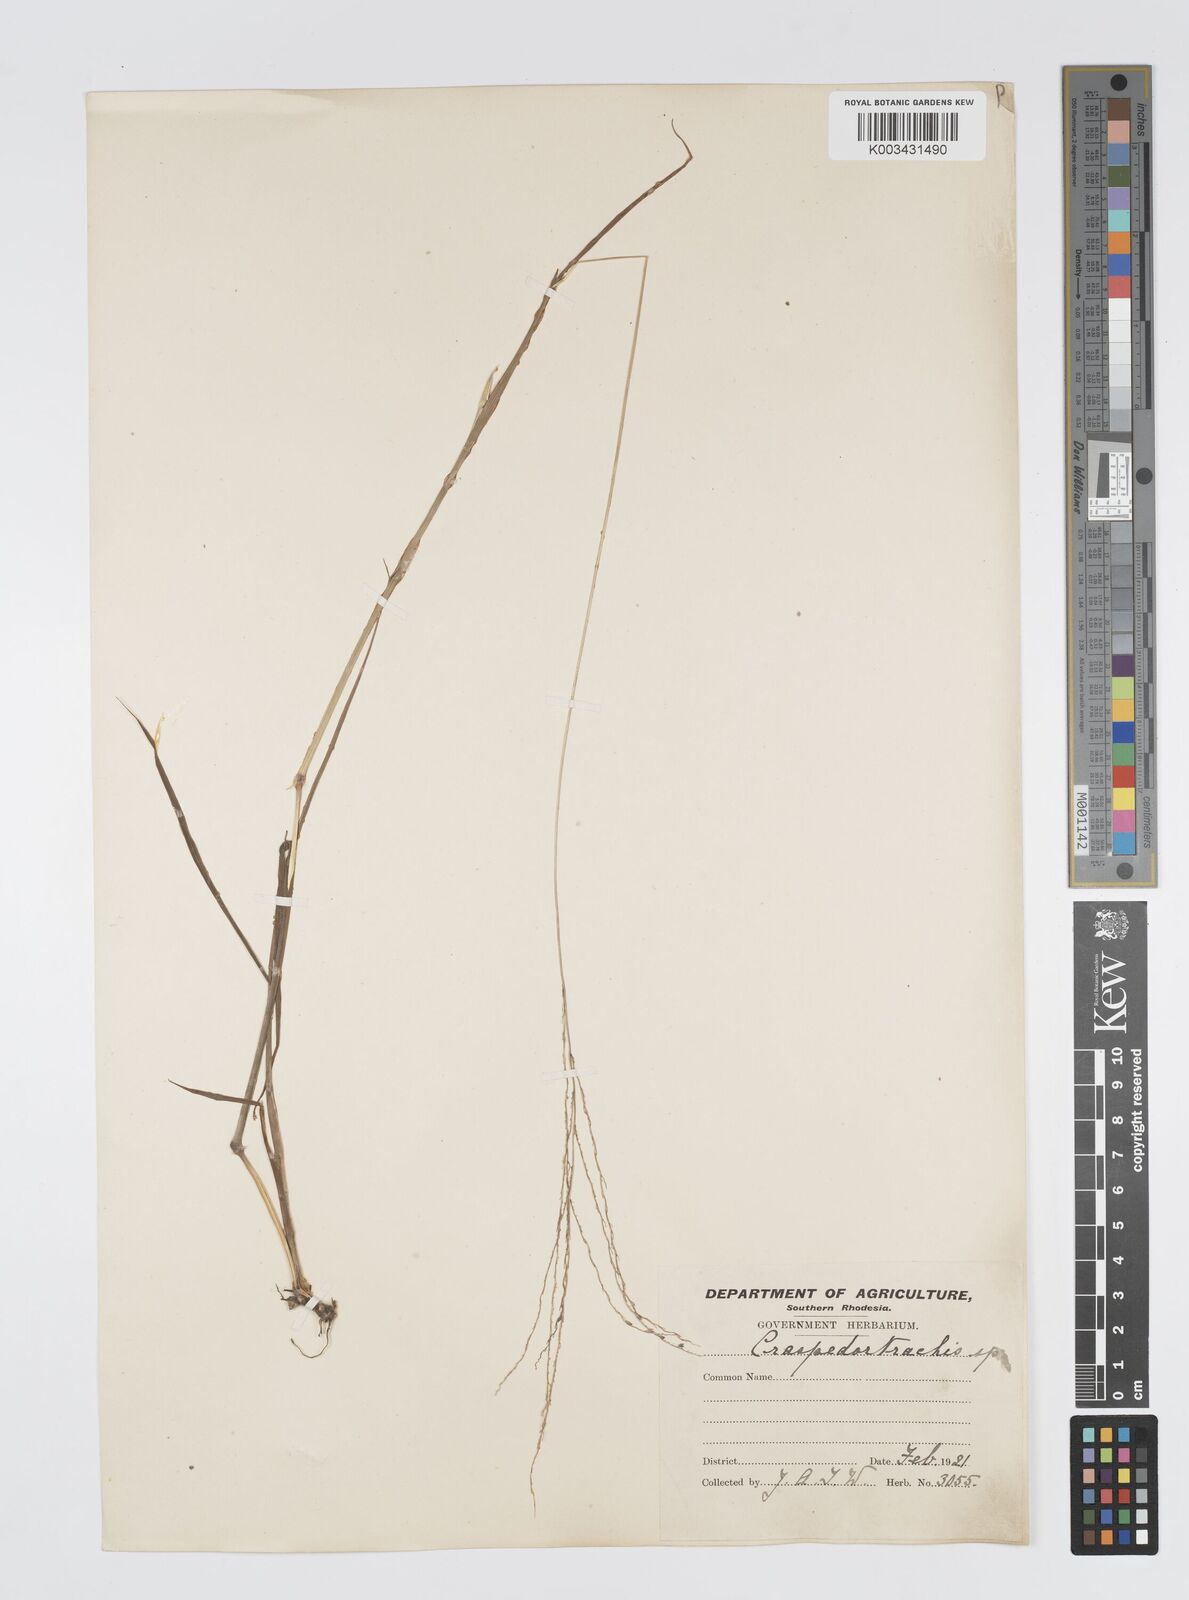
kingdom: Plantae
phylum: Tracheophyta
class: Liliopsida
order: Poales
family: Poaceae
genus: Digitaria
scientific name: Digitaria gazensis
